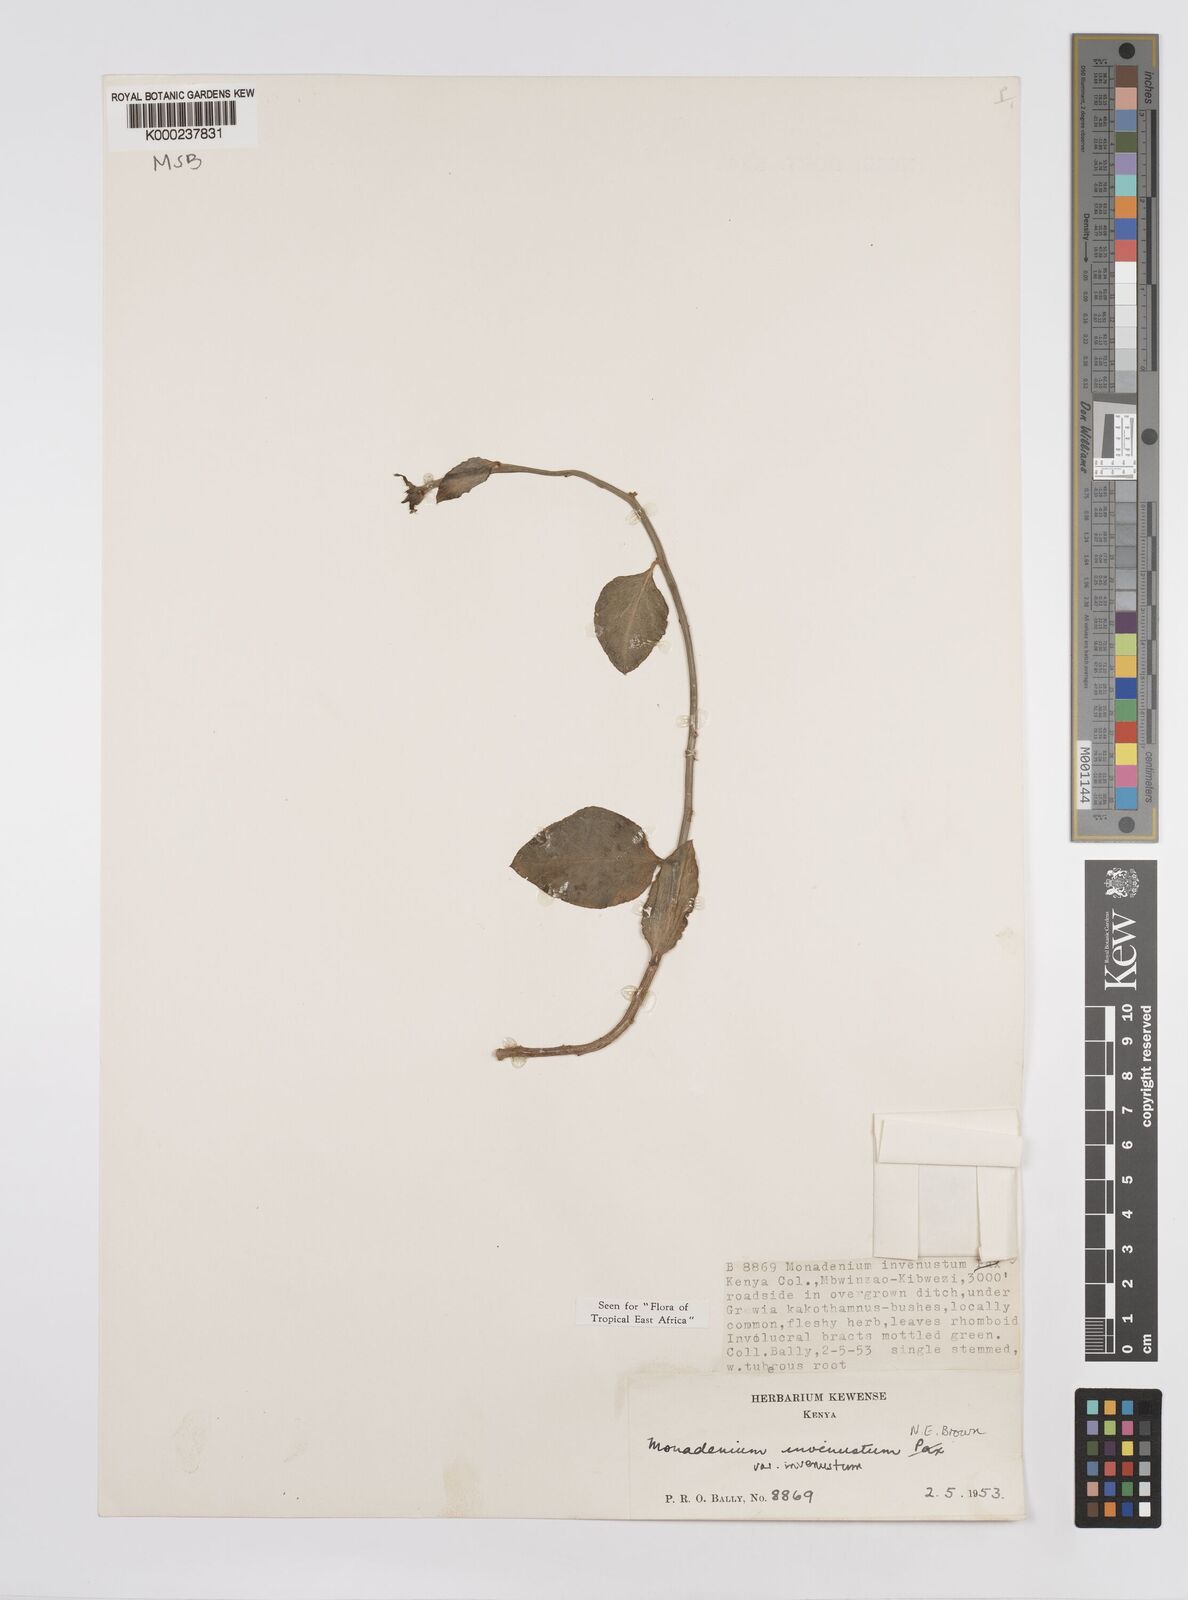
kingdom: Plantae
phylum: Tracheophyta
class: Magnoliopsida
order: Malpighiales
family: Euphorbiaceae
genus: Euphorbia
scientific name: Euphorbia invenusta
